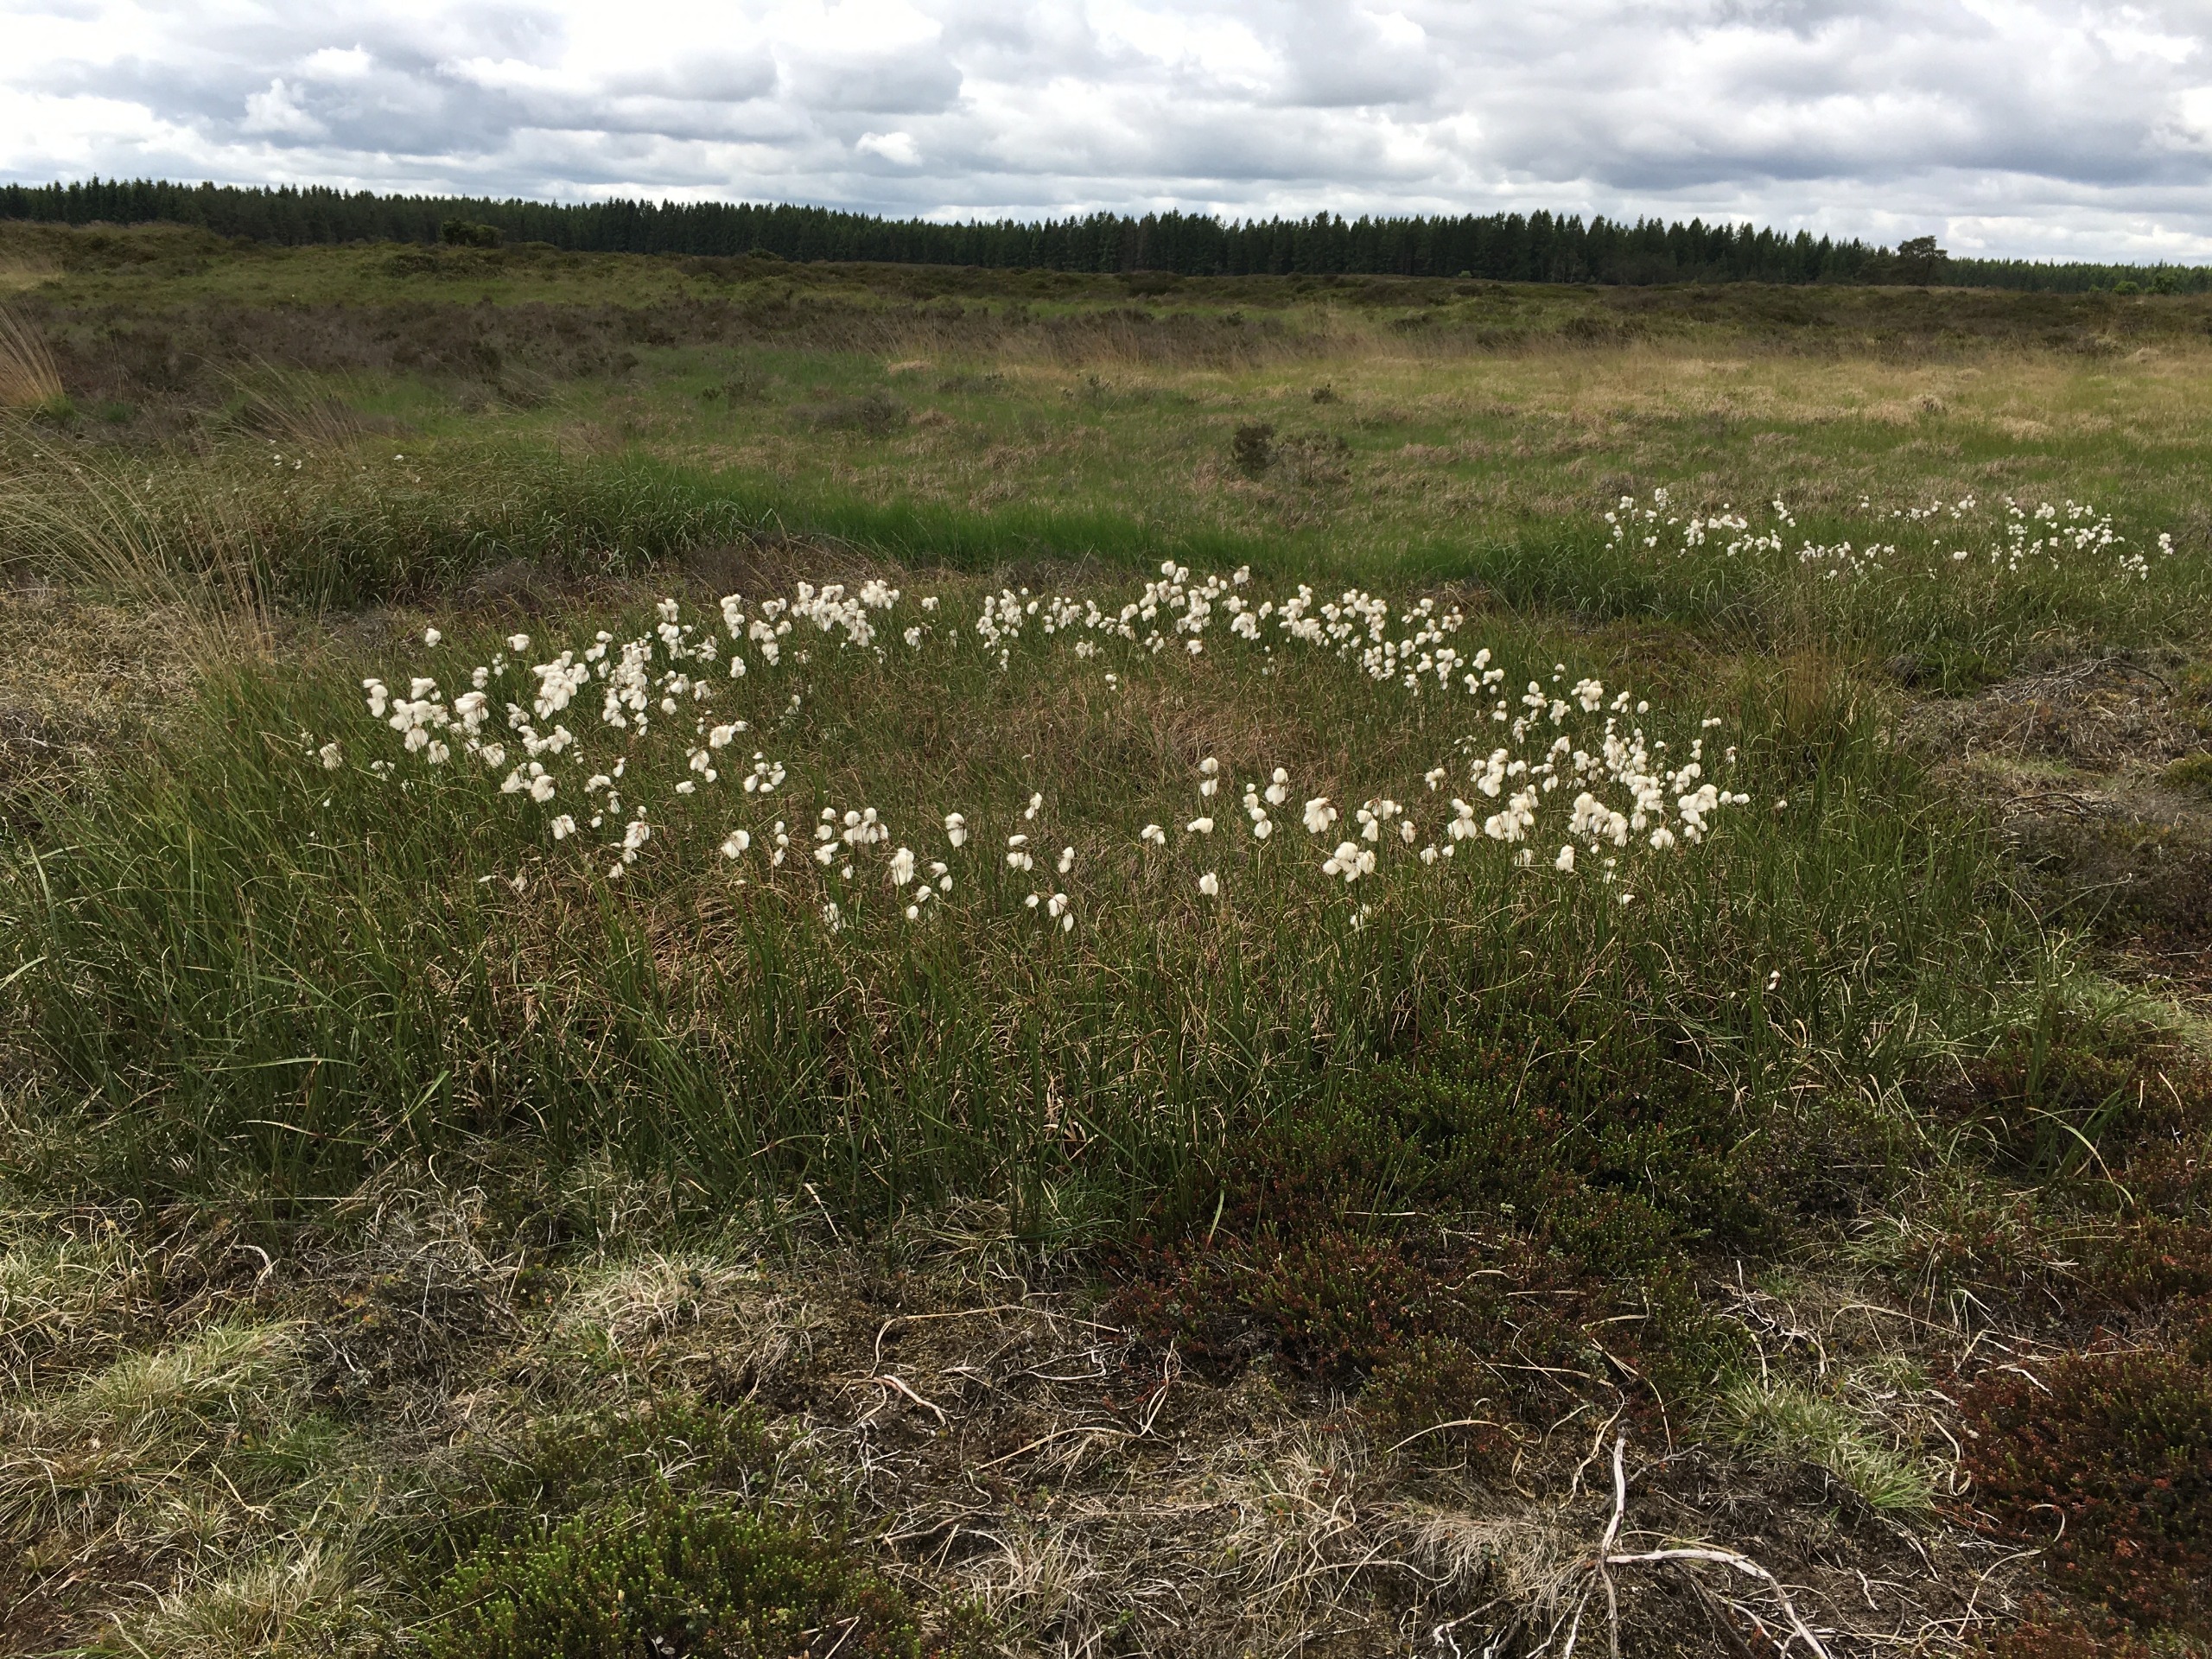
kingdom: Plantae
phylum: Tracheophyta
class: Liliopsida
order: Poales
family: Cyperaceae
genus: Eriophorum
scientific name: Eriophorum angustifolium
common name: Smalbladet kæruld
